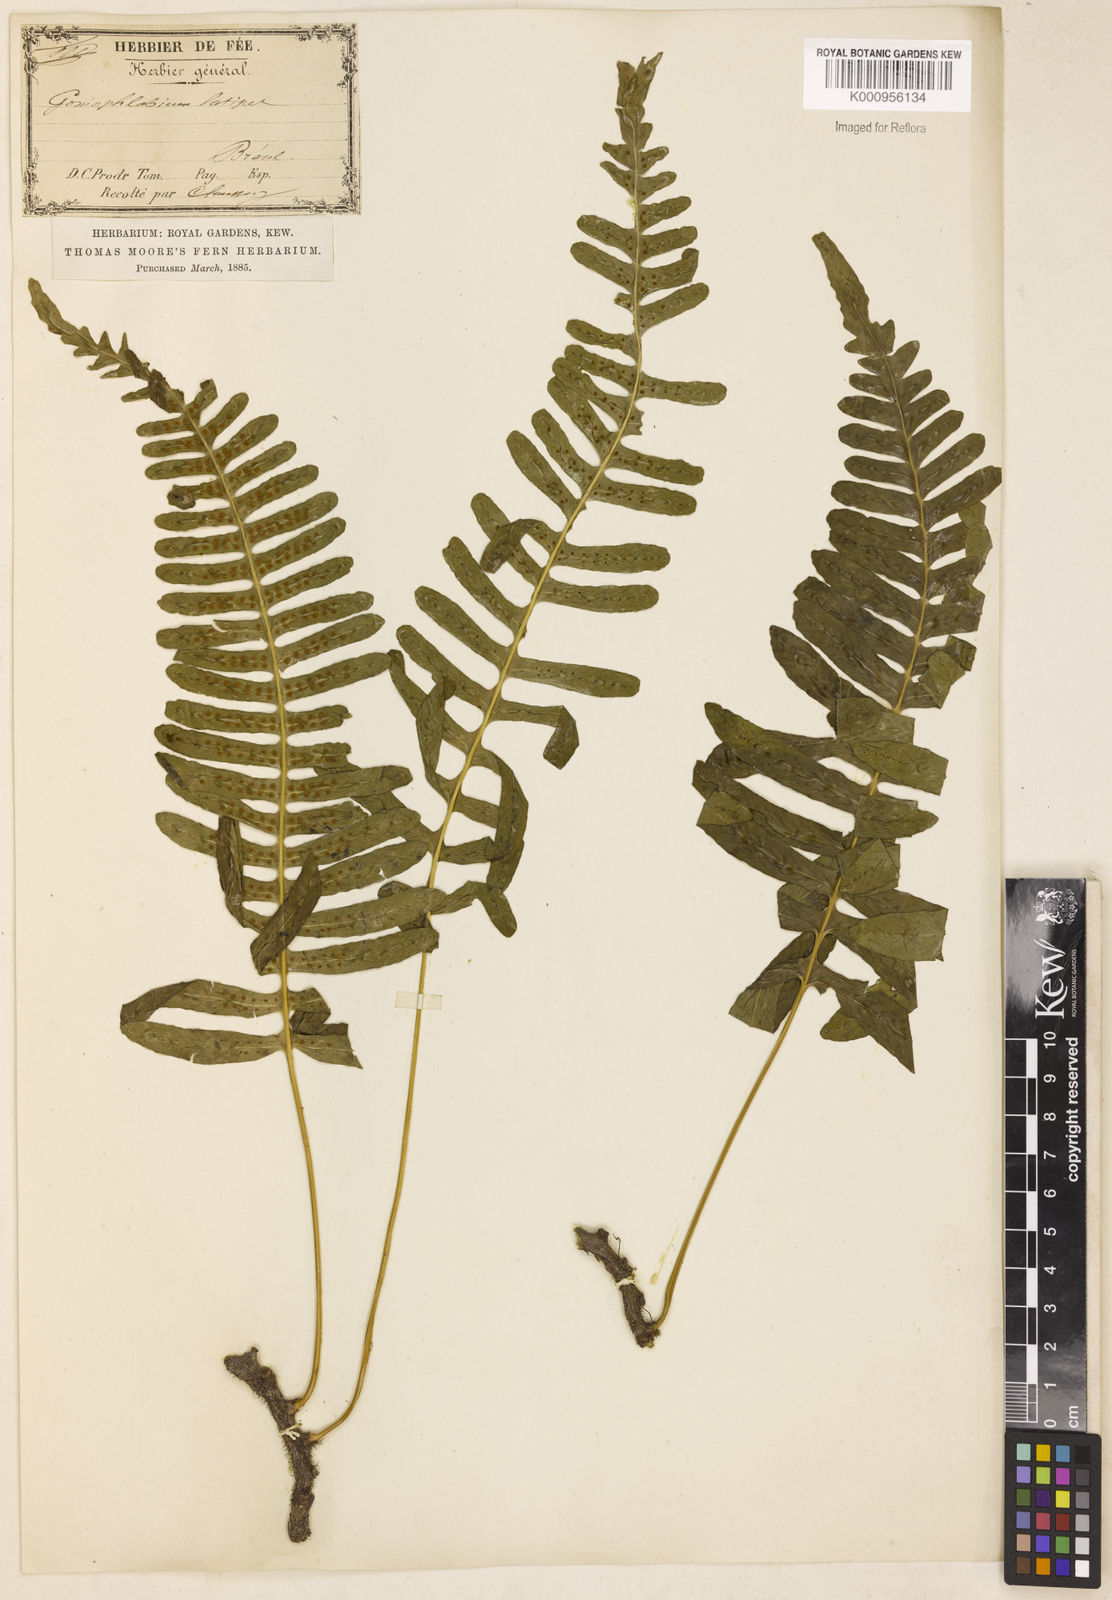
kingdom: Plantae
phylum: Tracheophyta
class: Polypodiopsida
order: Polypodiales
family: Polypodiaceae
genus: Serpocaulon
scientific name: Serpocaulon catharinae
